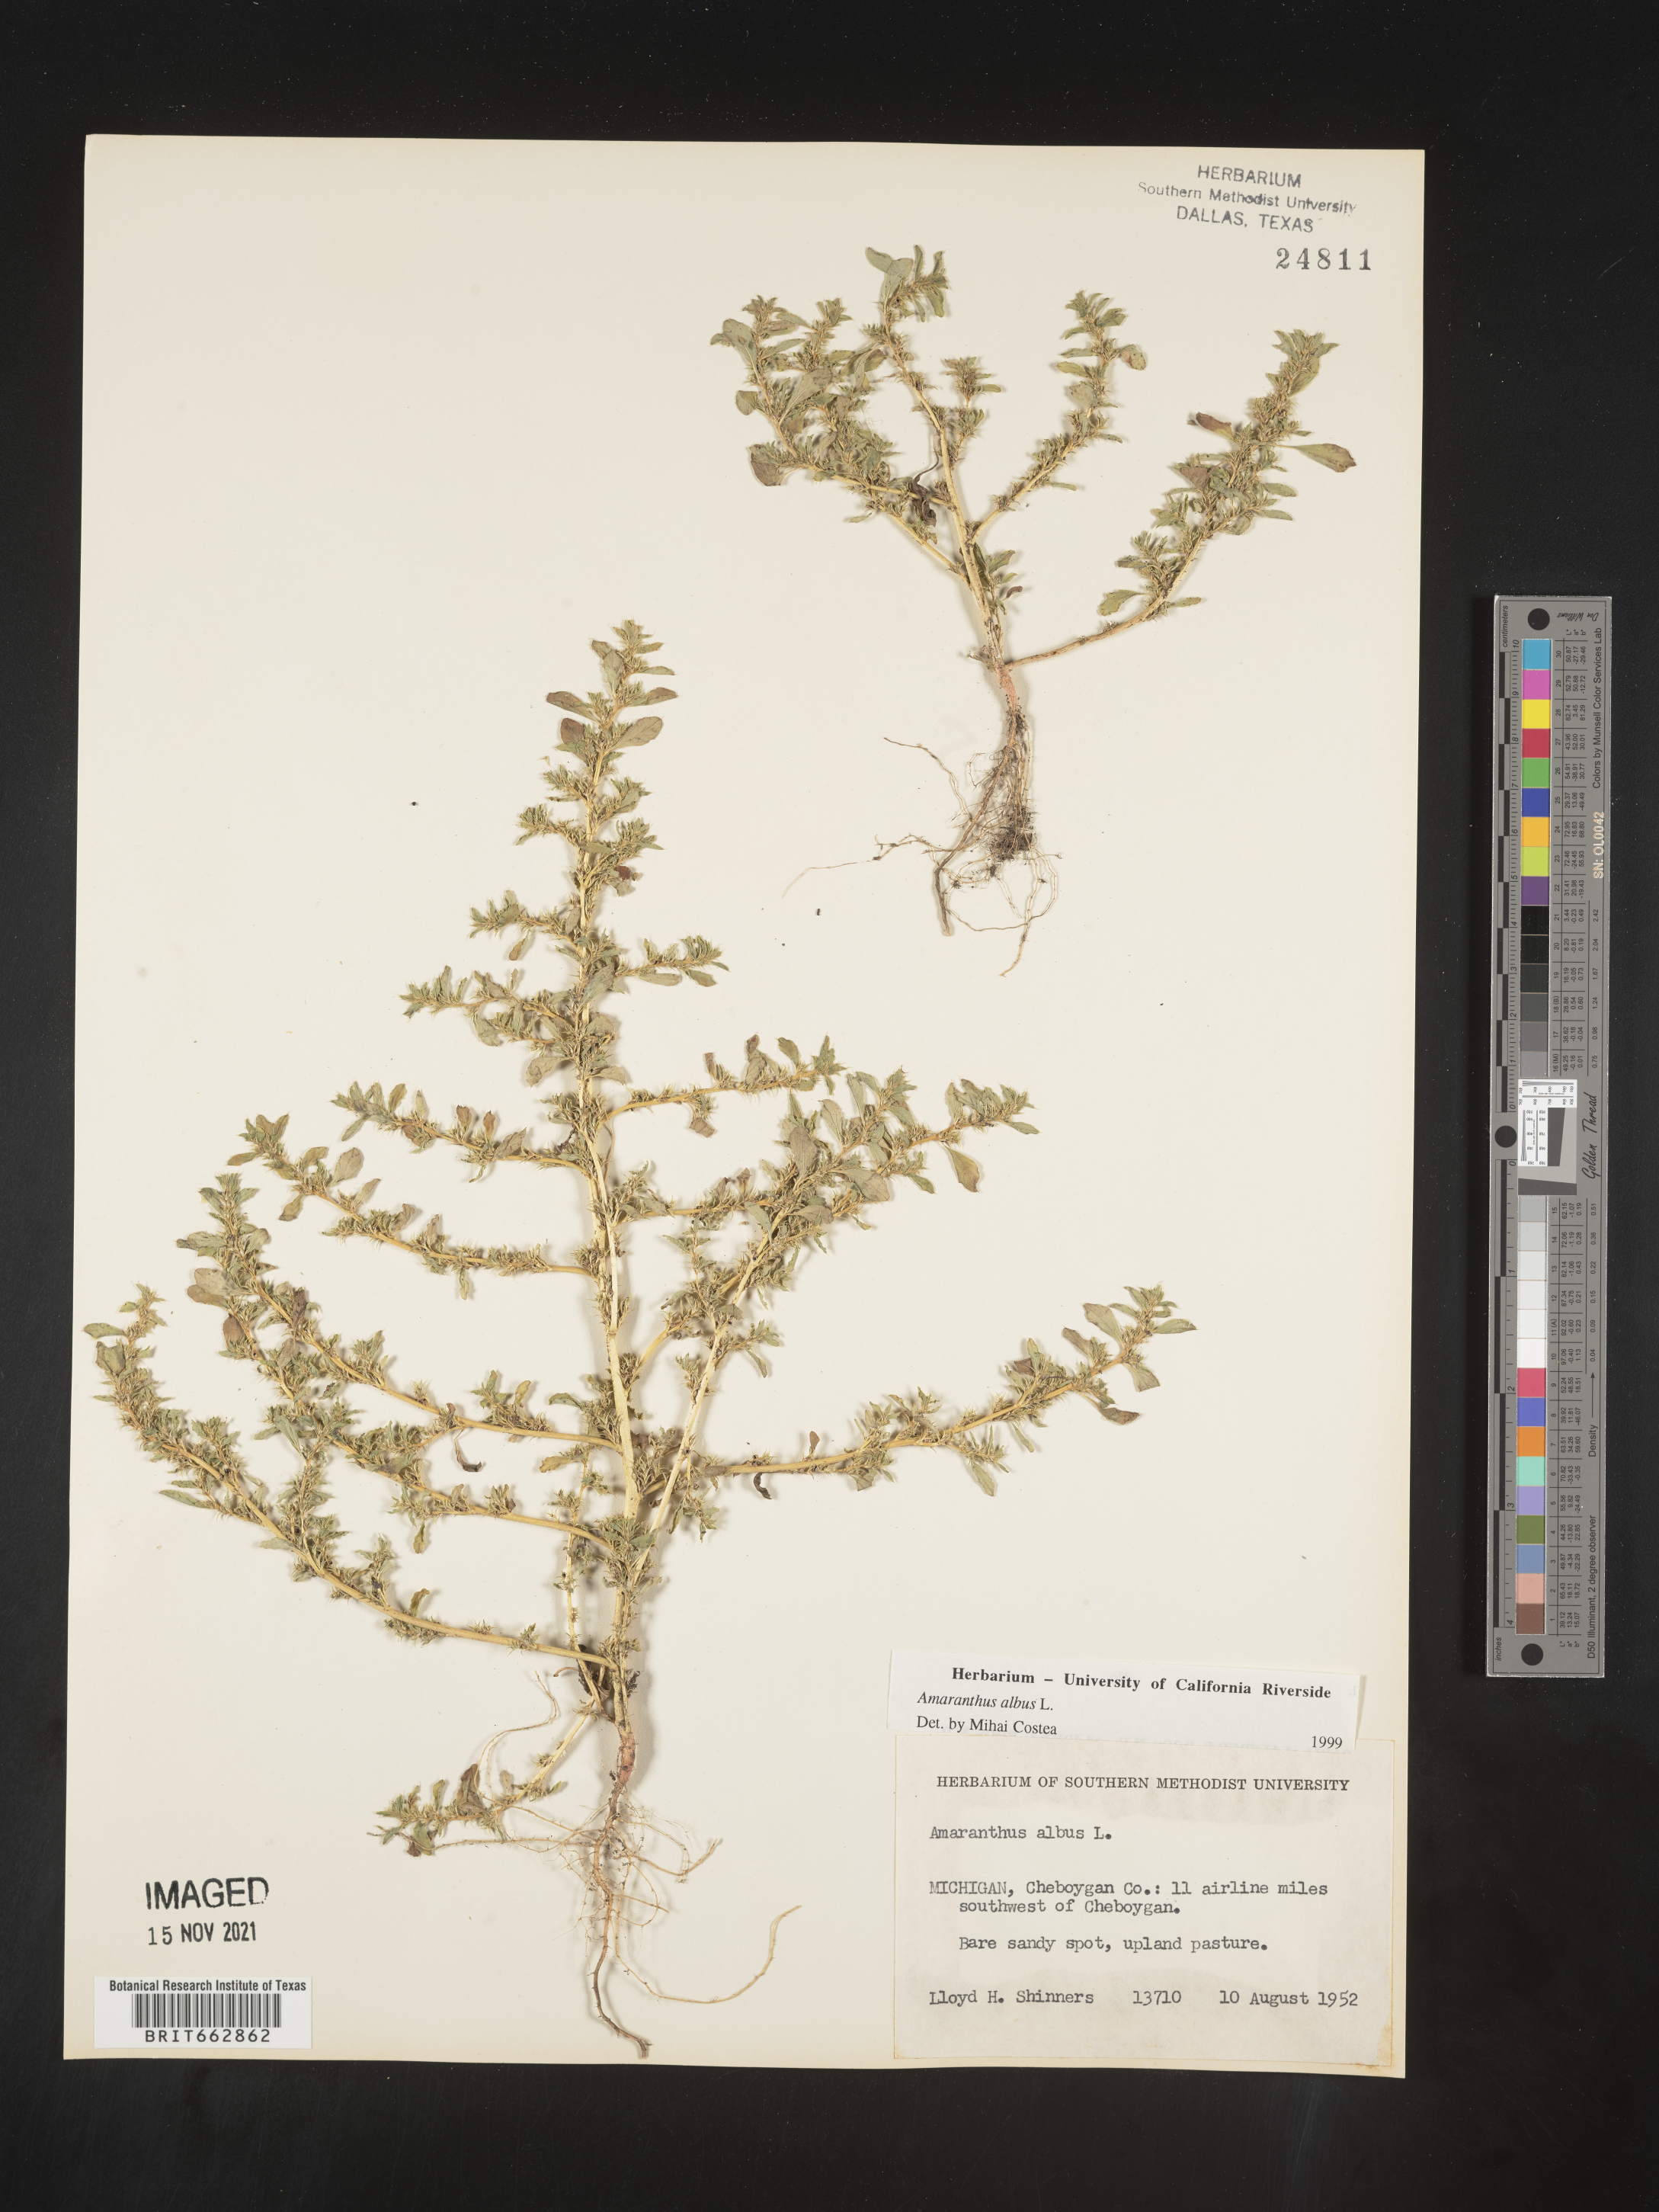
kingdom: Plantae
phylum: Tracheophyta
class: Magnoliopsida
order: Caryophyllales
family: Amaranthaceae
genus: Amaranthus
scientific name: Amaranthus albus
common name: White pigweed
